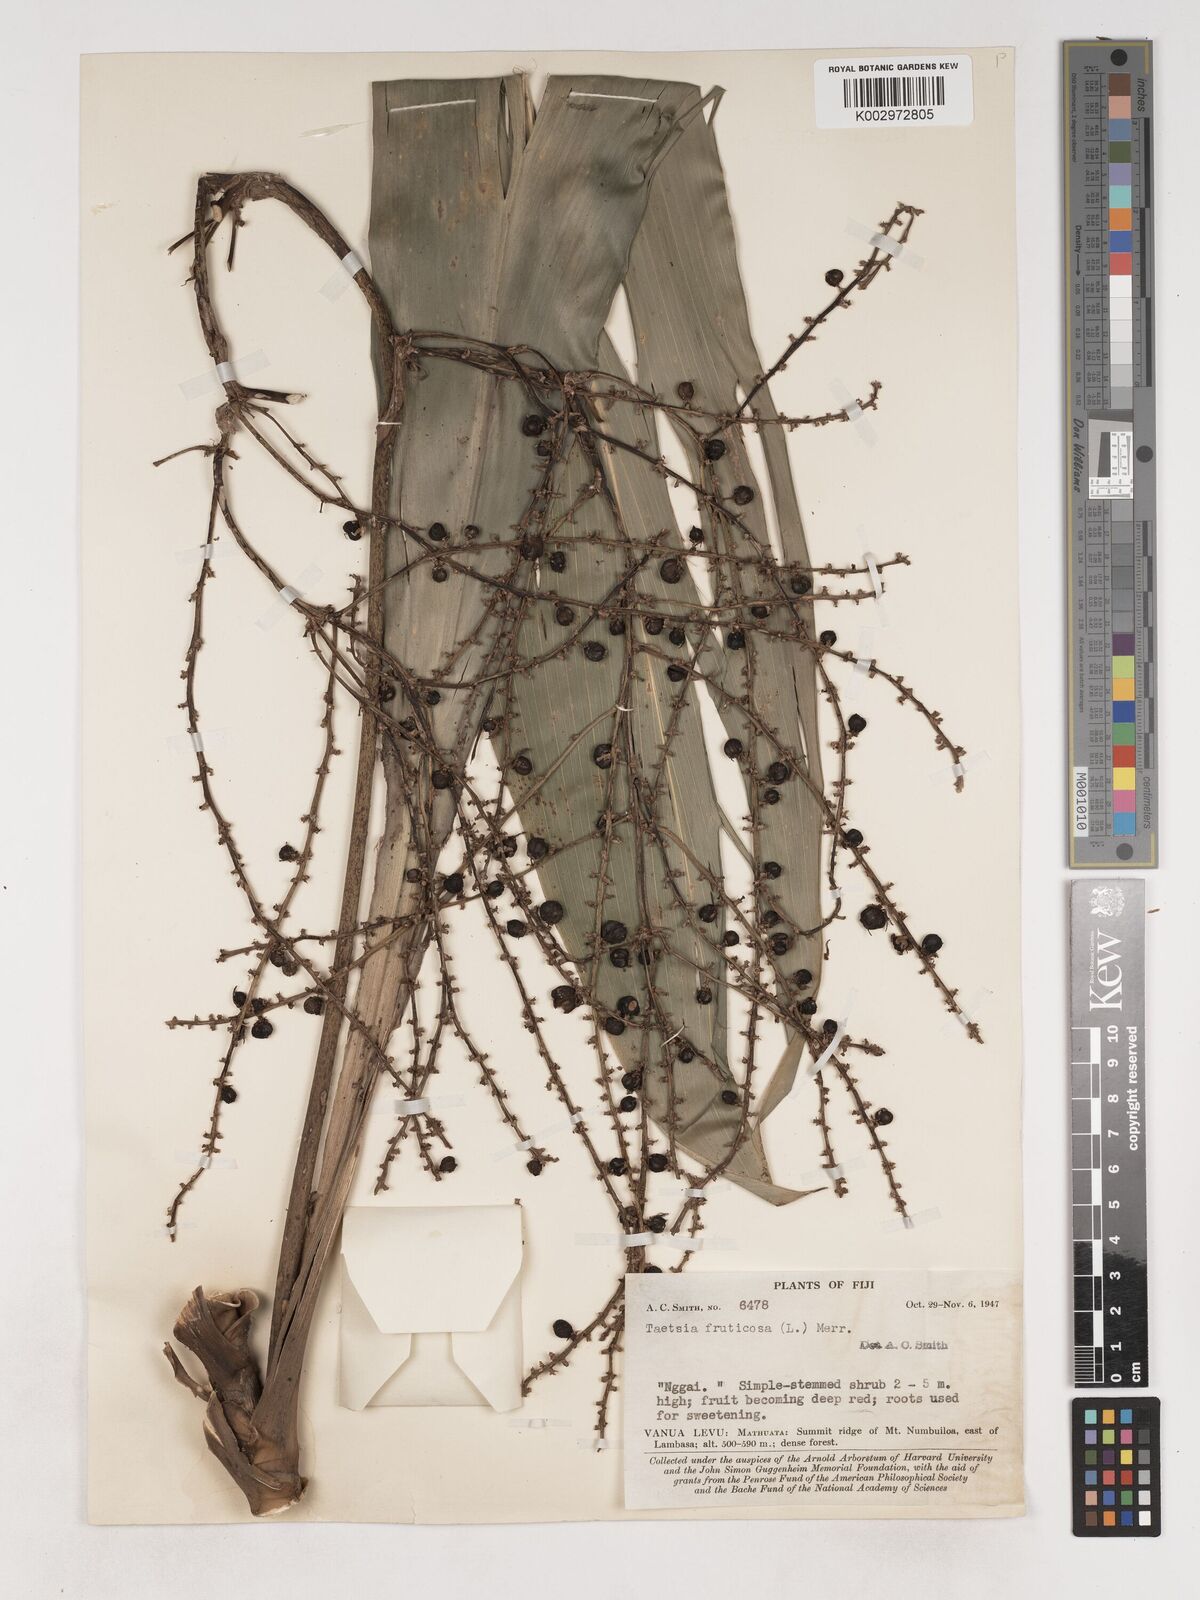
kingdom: Plantae
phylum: Tracheophyta
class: Liliopsida
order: Asparagales
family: Asparagaceae
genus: Cordyline
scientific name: Cordyline fruticosa
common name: Good-luck-plant
